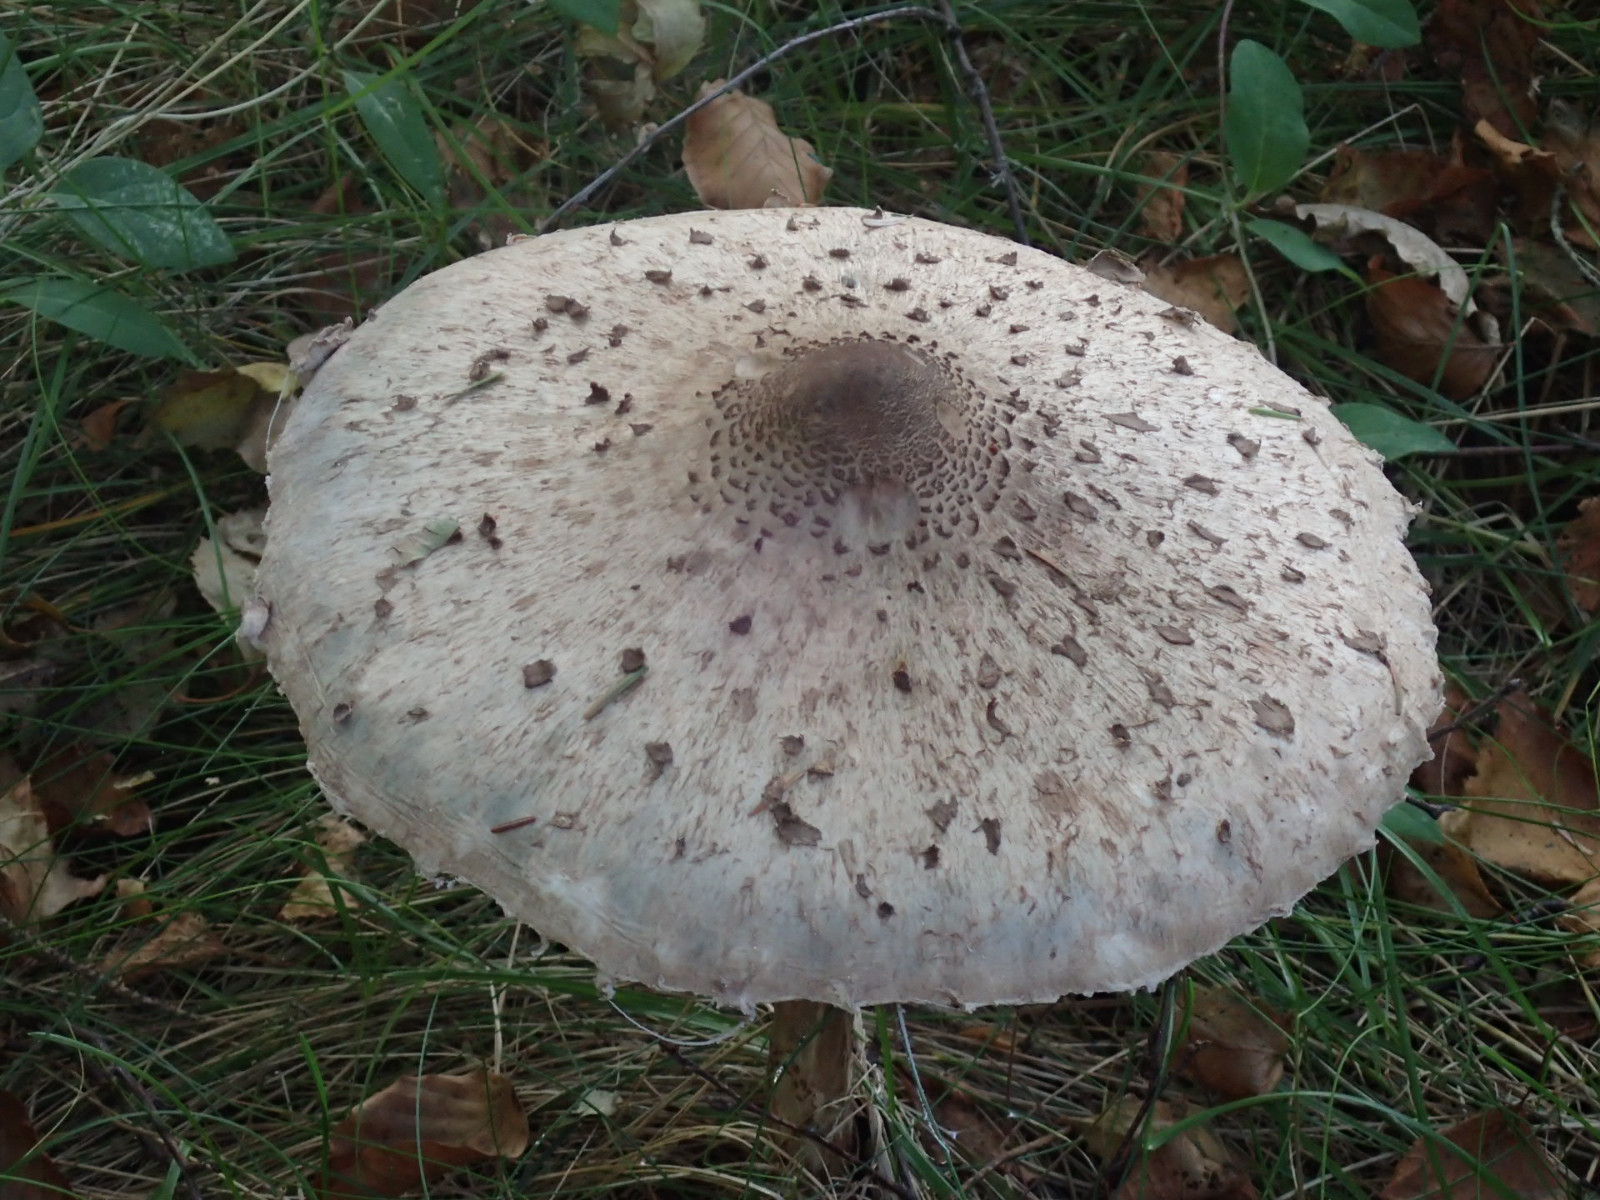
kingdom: Fungi
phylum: Basidiomycota
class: Agaricomycetes
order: Agaricales
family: Agaricaceae
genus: Macrolepiota
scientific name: Macrolepiota
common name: kæmpeparasolhat
